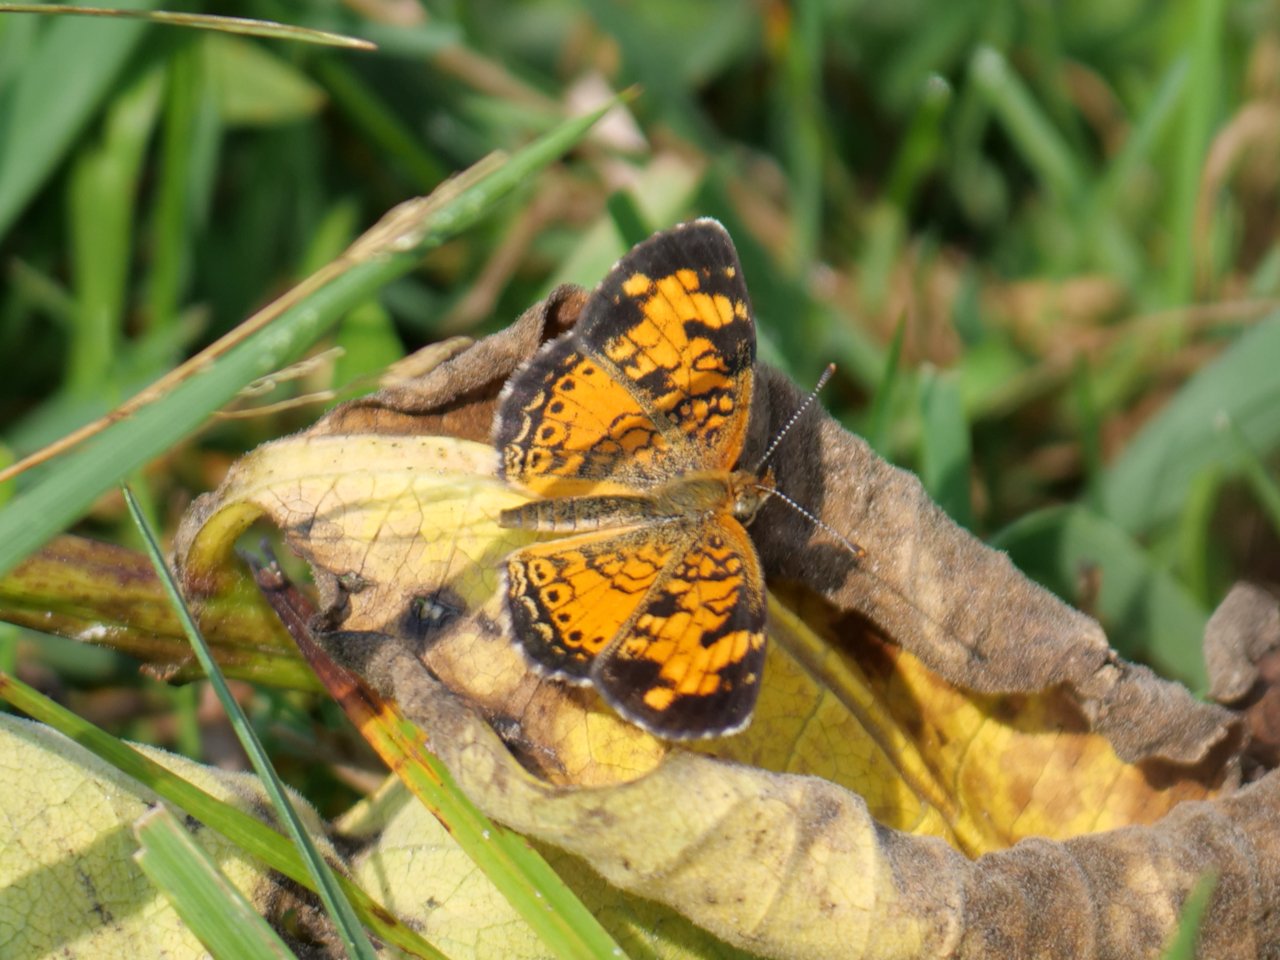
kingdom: Animalia
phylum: Arthropoda
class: Insecta
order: Lepidoptera
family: Nymphalidae
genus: Phyciodes
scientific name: Phyciodes tharos
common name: Northern Crescent
